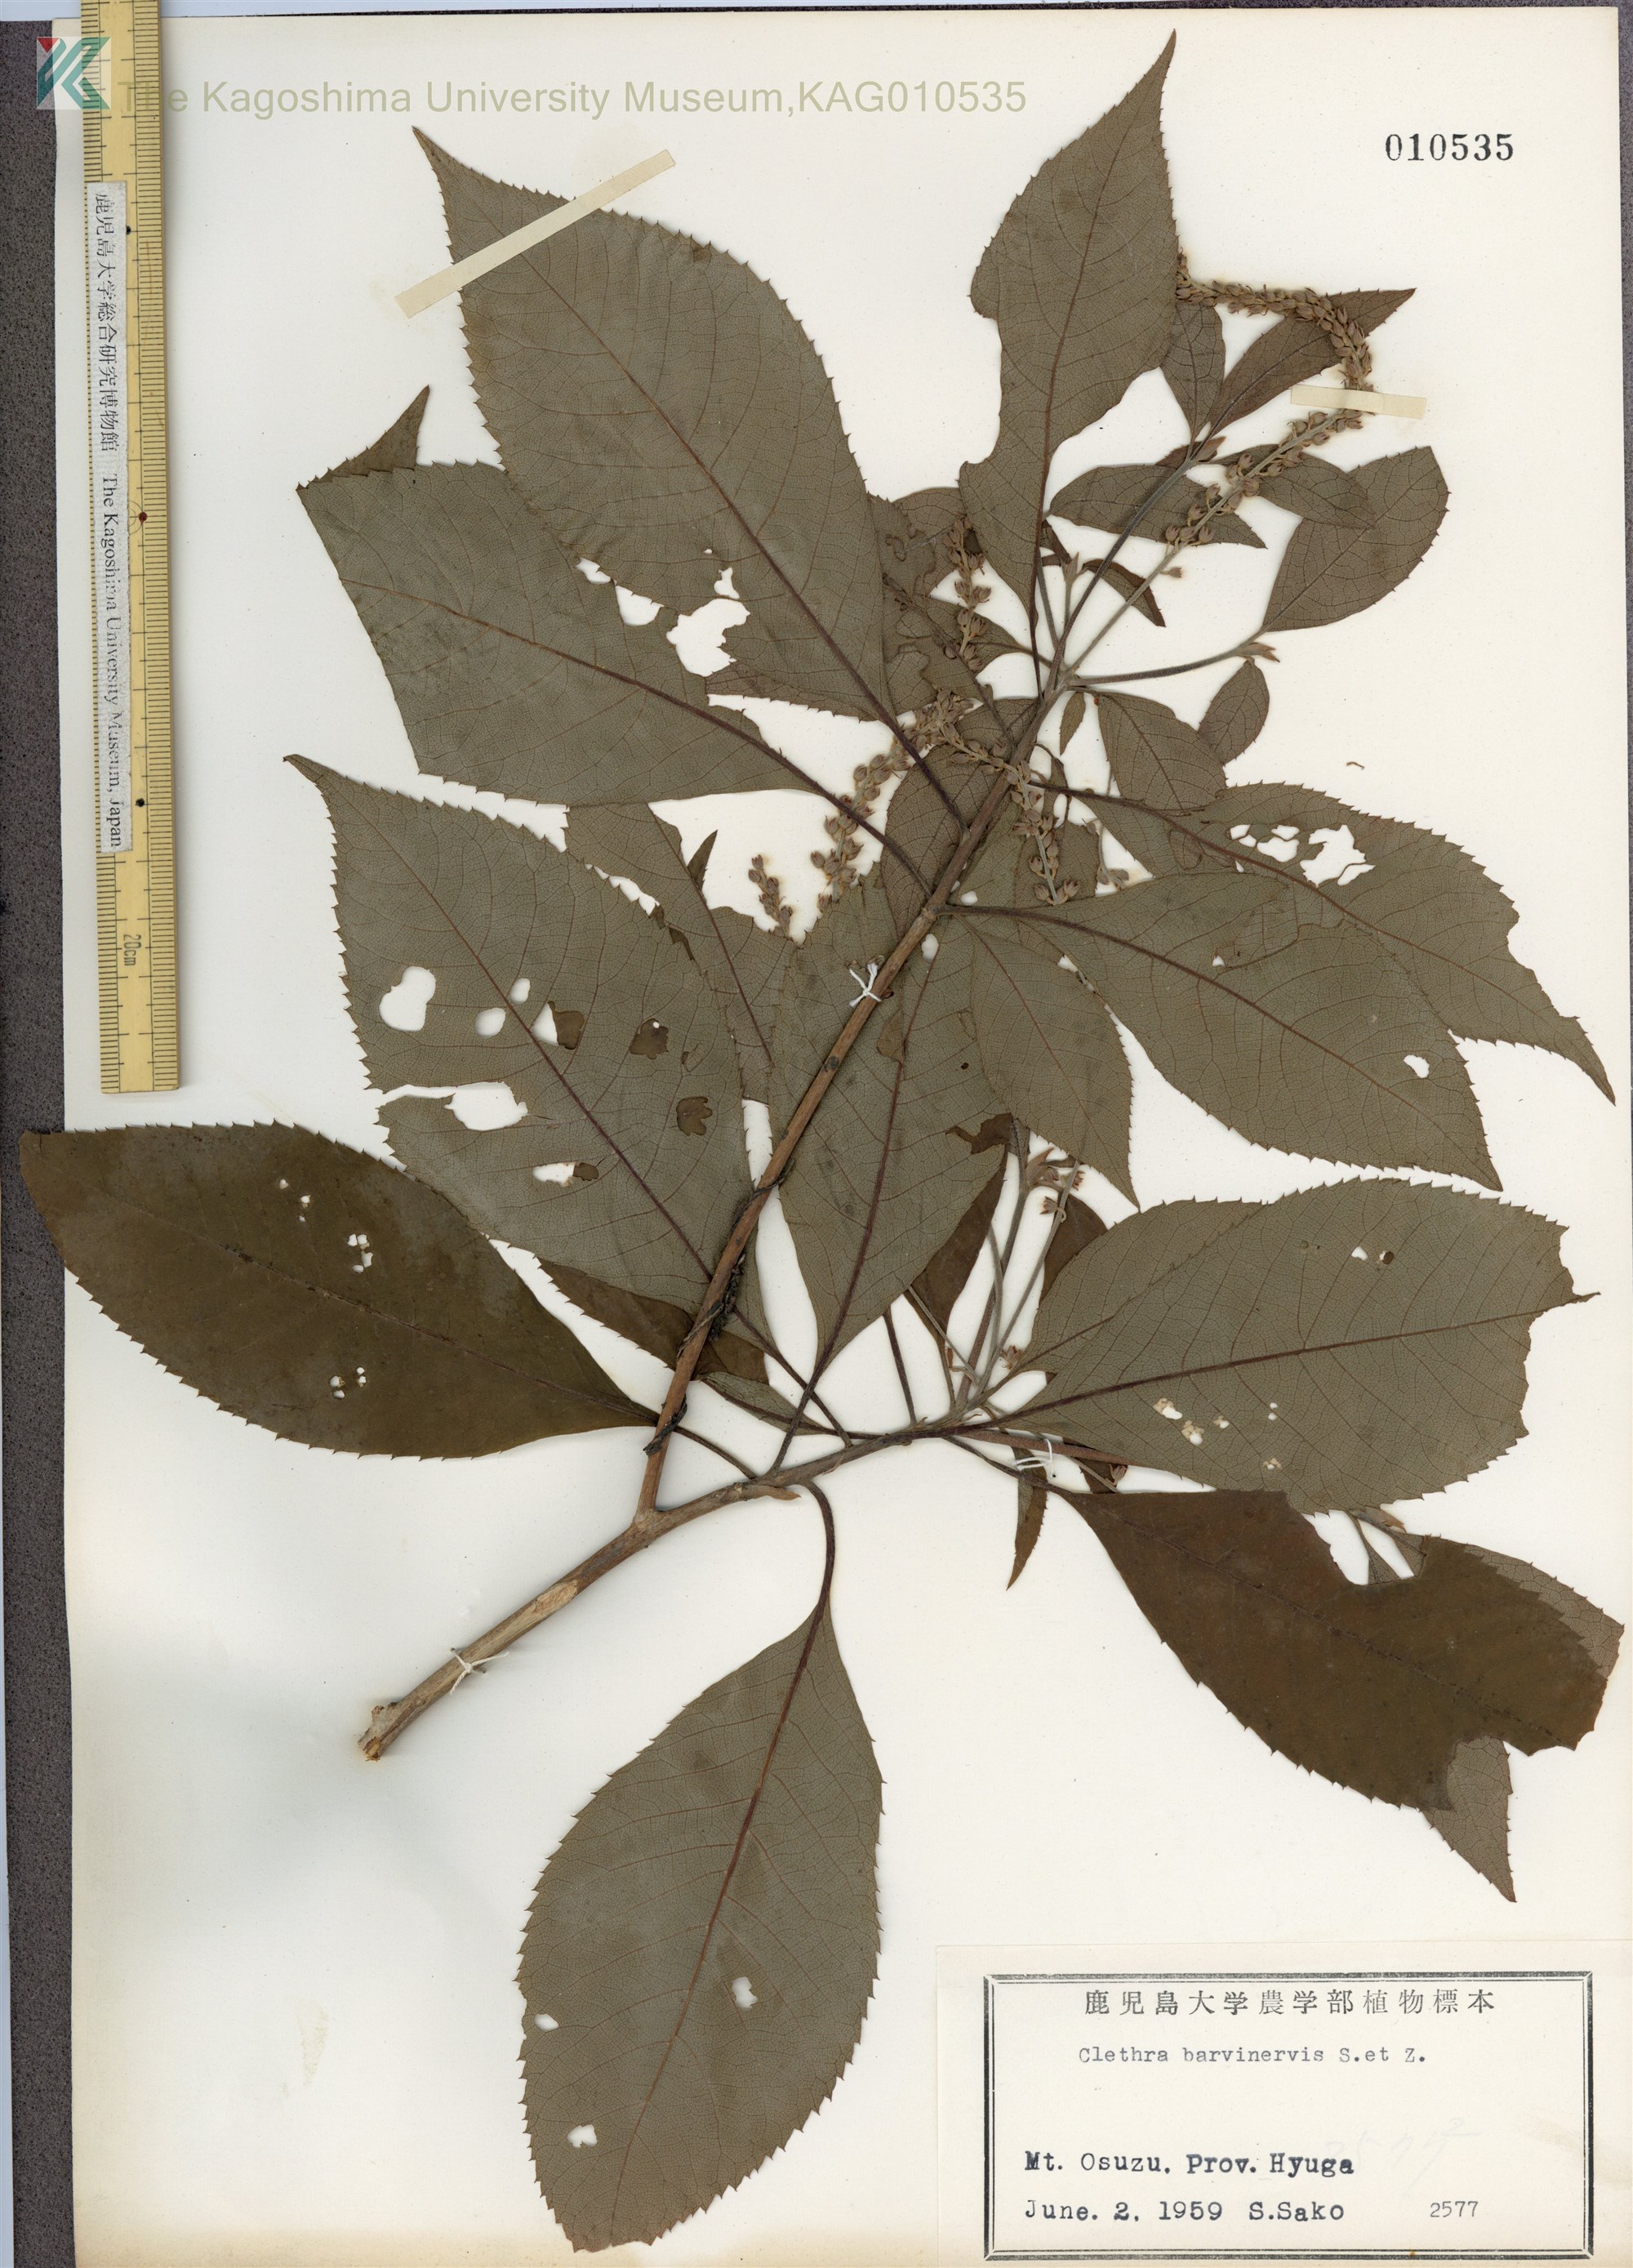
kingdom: Plantae
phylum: Tracheophyta
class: Magnoliopsida
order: Ericales
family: Clethraceae
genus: Clethra
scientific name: Clethra barbinervis
